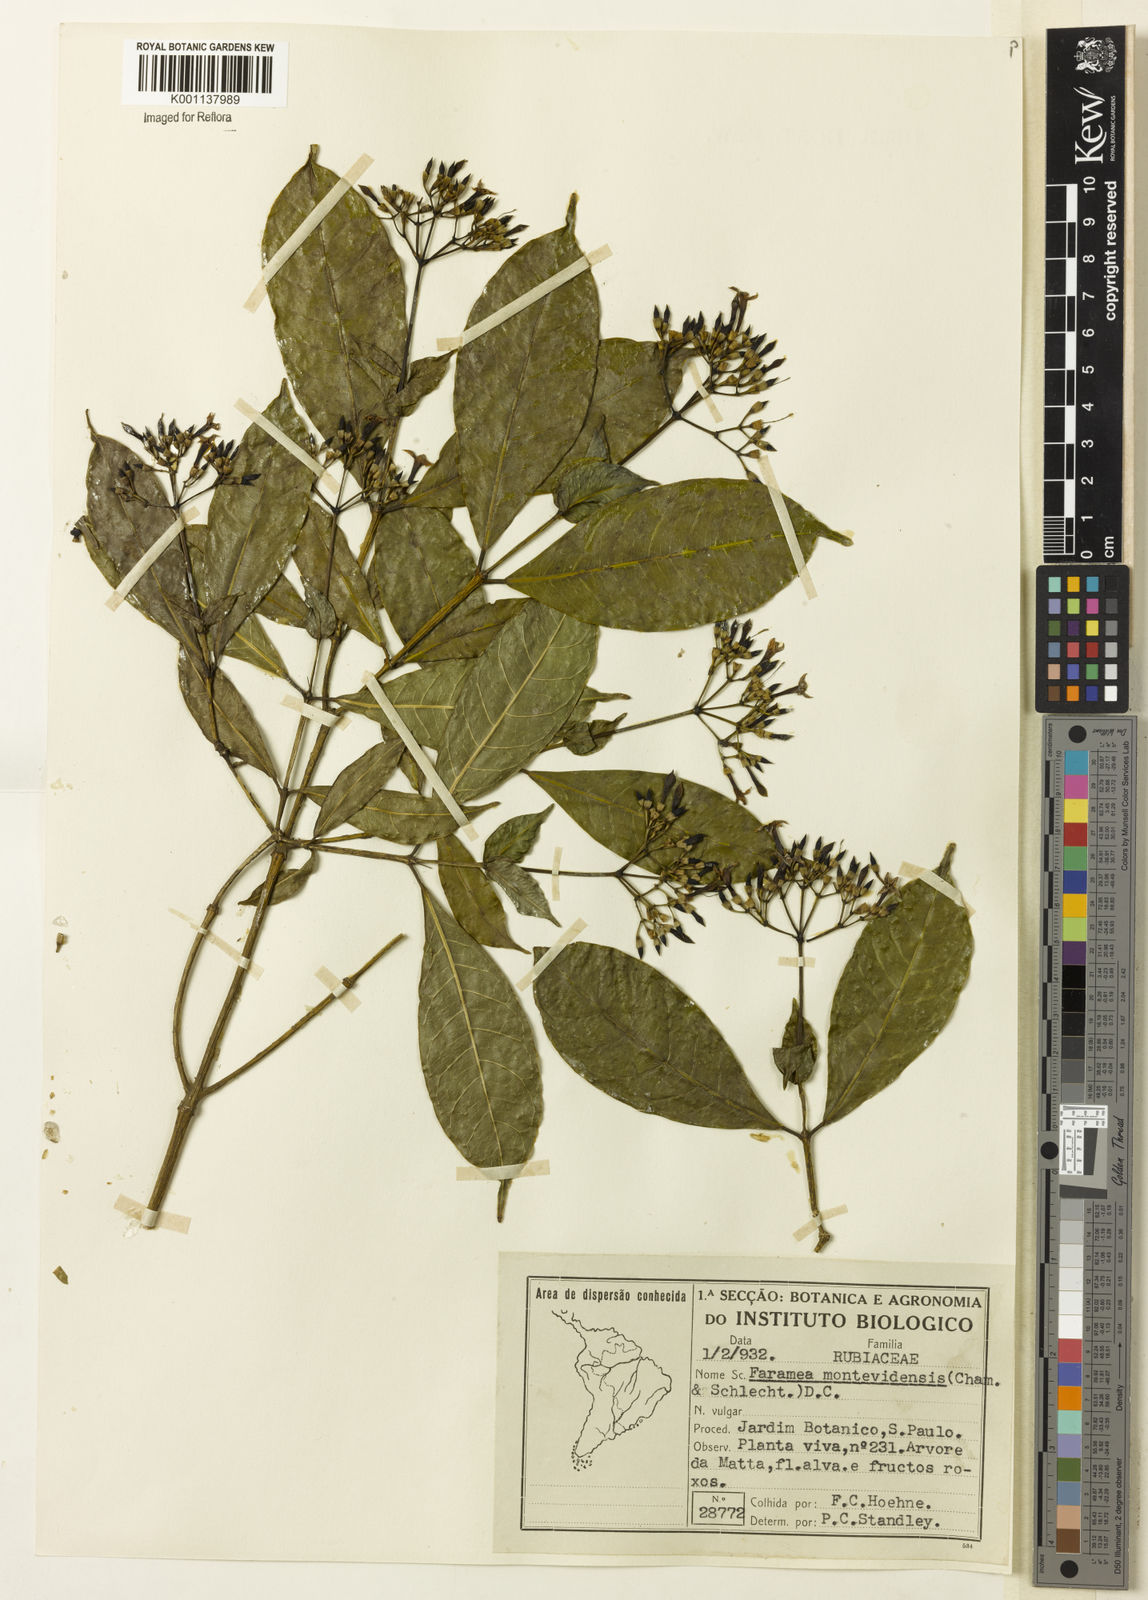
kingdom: Plantae
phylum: Tracheophyta
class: Magnoliopsida
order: Gentianales
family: Rubiaceae
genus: Faramea
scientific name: Faramea montevidensis
